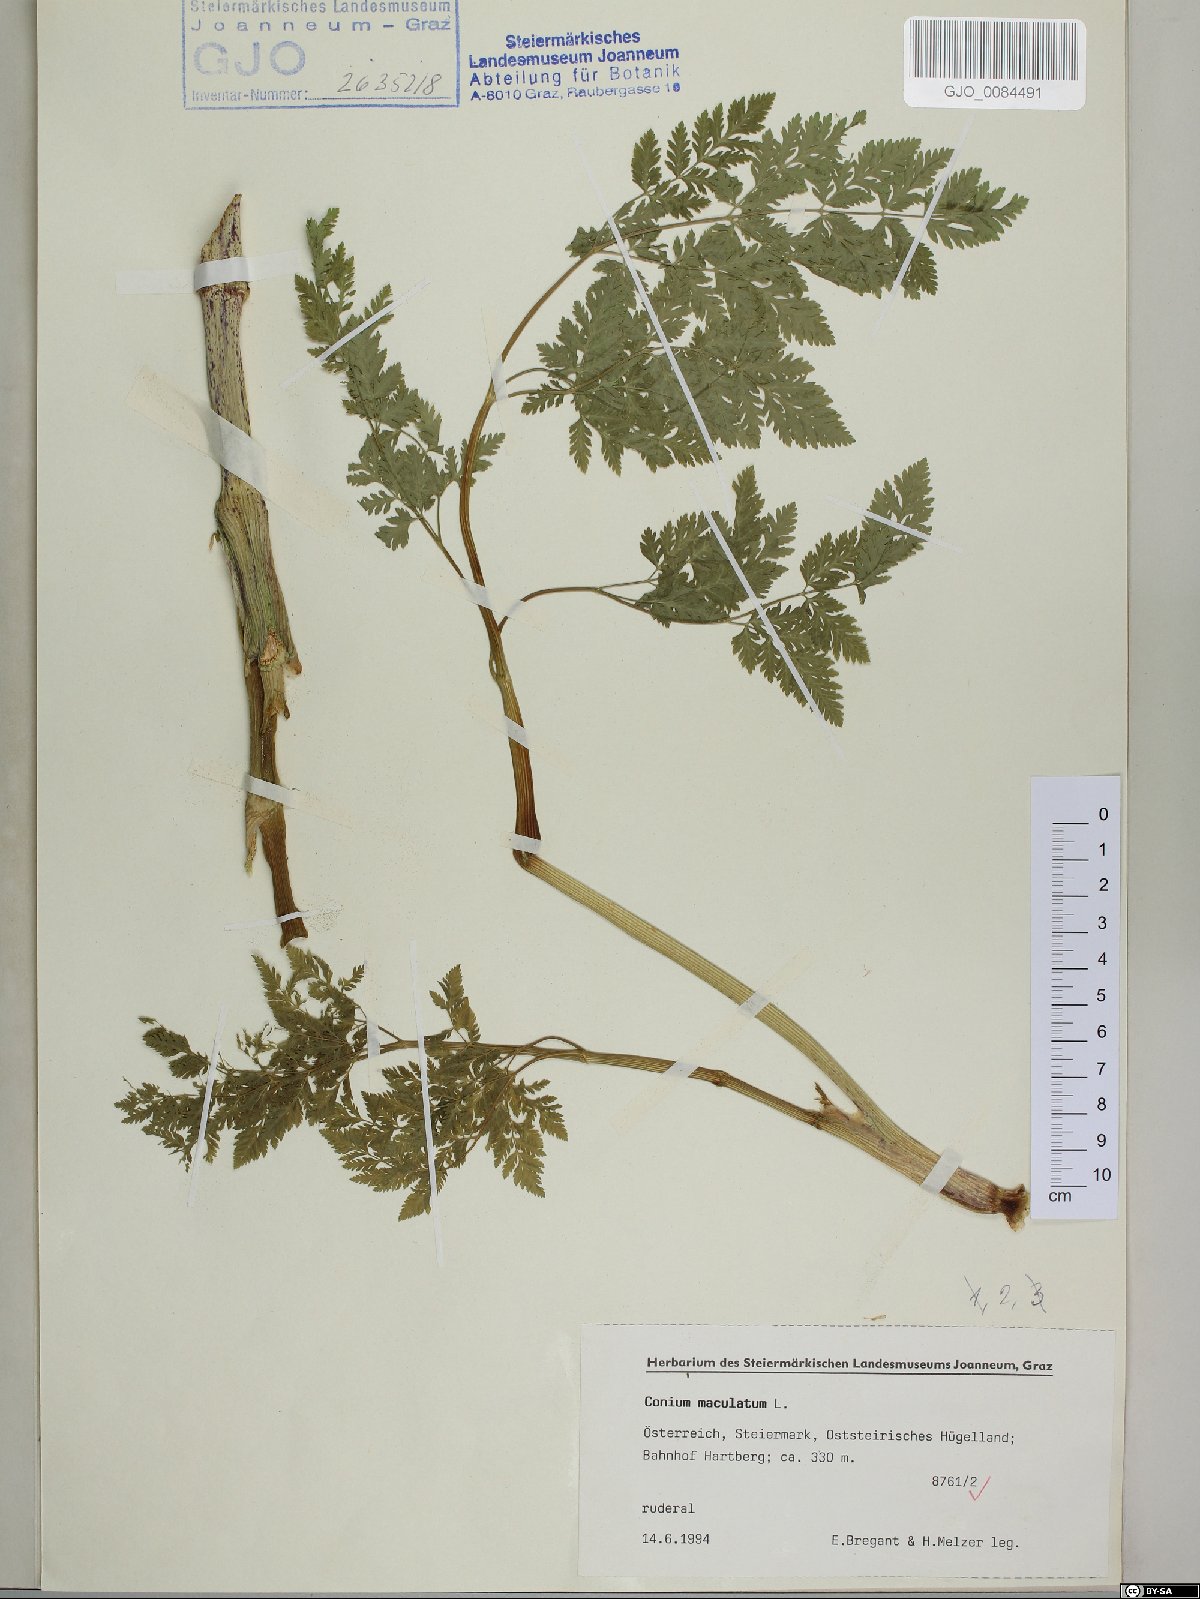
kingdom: Plantae
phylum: Tracheophyta
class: Magnoliopsida
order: Apiales
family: Apiaceae
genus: Conium
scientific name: Conium maculatum
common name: Hemlock
